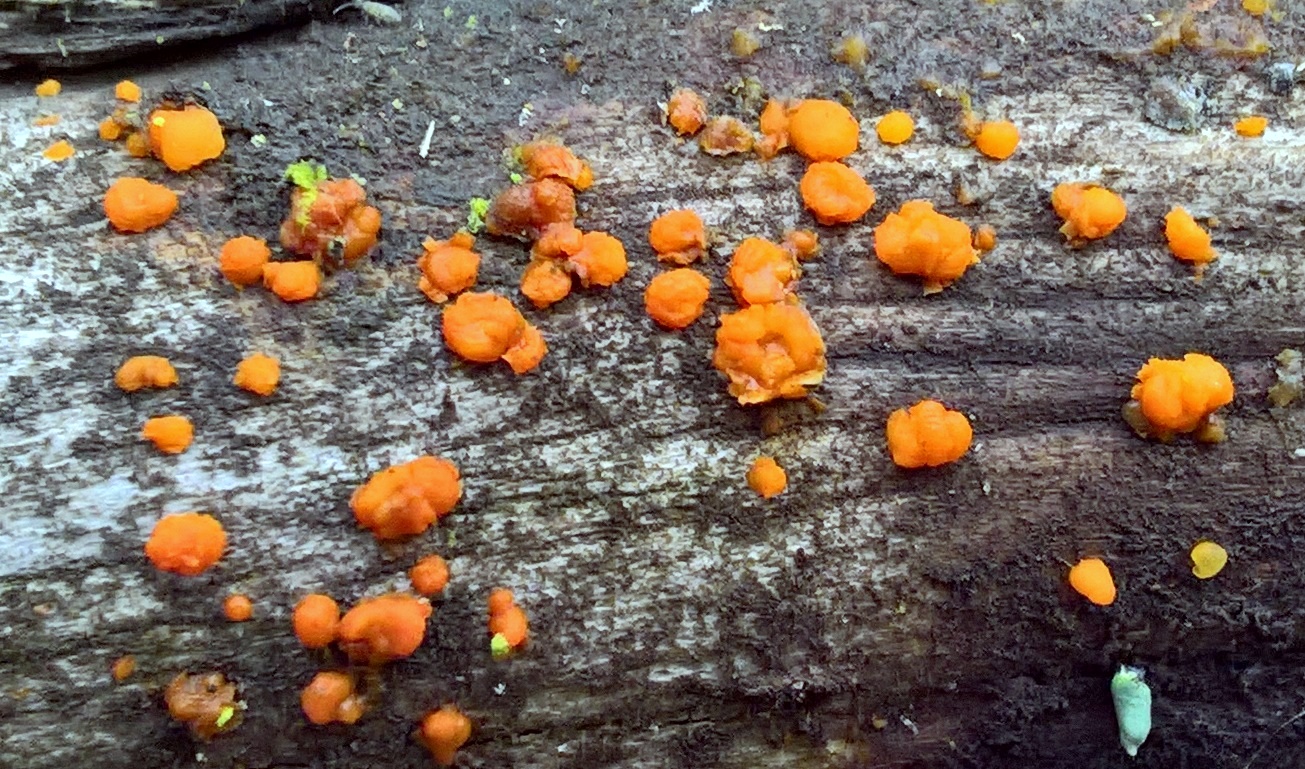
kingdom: Fungi
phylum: Basidiomycota
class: Dacrymycetes
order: Dacrymycetales
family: Dacrymycetaceae
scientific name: Dacrymycetaceae
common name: tåresvampfamilien
